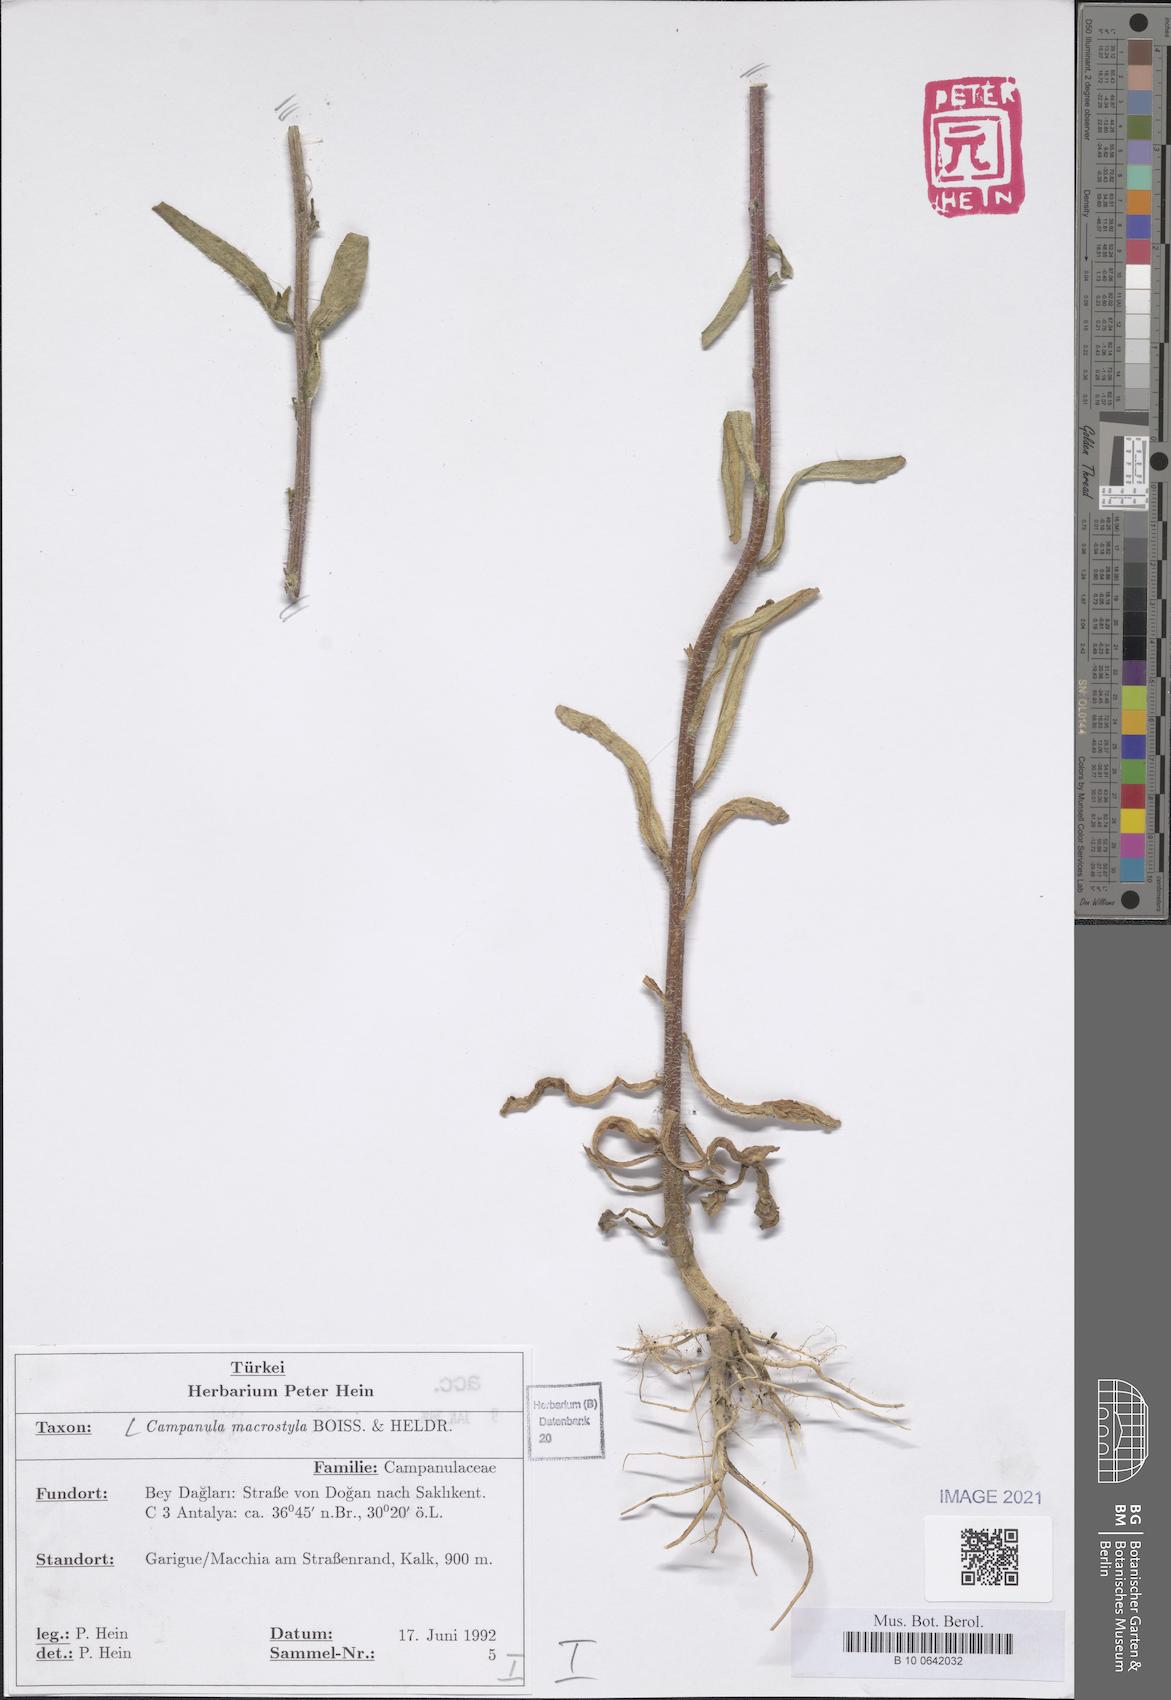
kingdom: Plantae
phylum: Tracheophyta
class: Magnoliopsida
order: Asterales
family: Campanulaceae
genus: Campanula
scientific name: Campanula macrostyla
